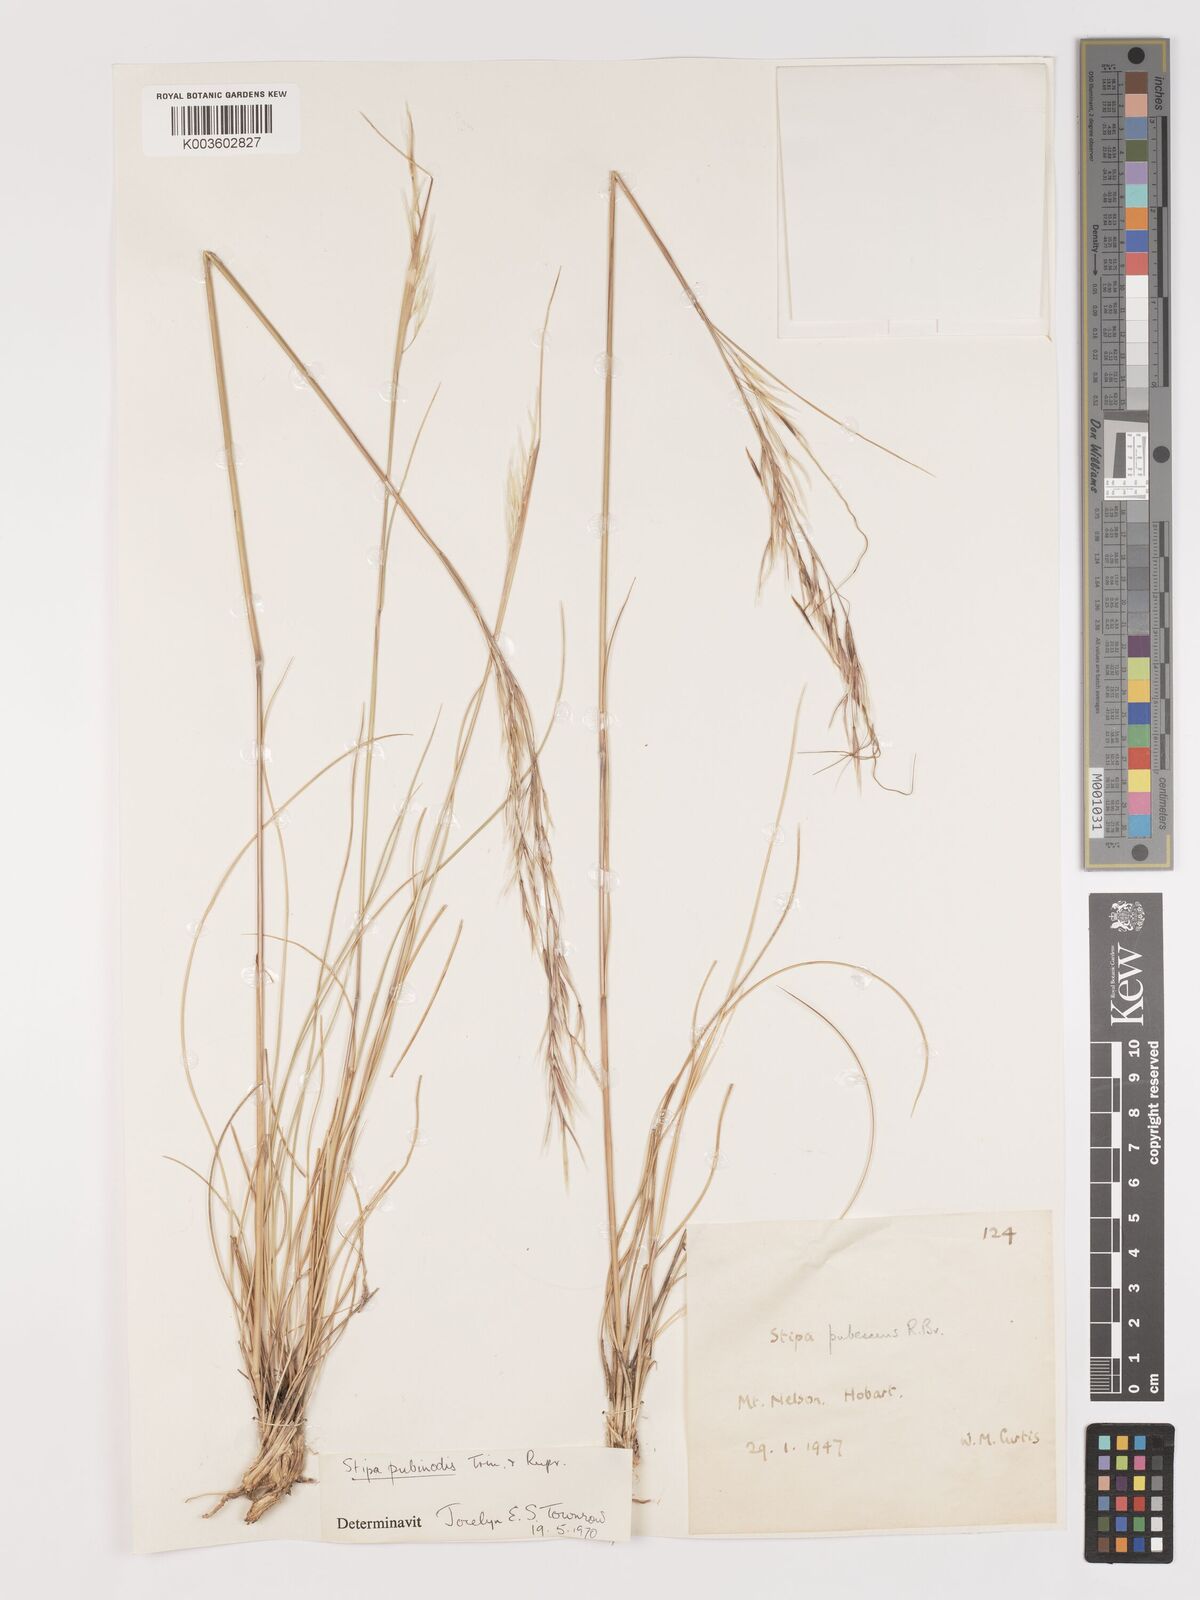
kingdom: Plantae
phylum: Tracheophyta
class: Liliopsida
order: Poales
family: Poaceae
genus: Austrostipa
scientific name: Austrostipa pubinodis
